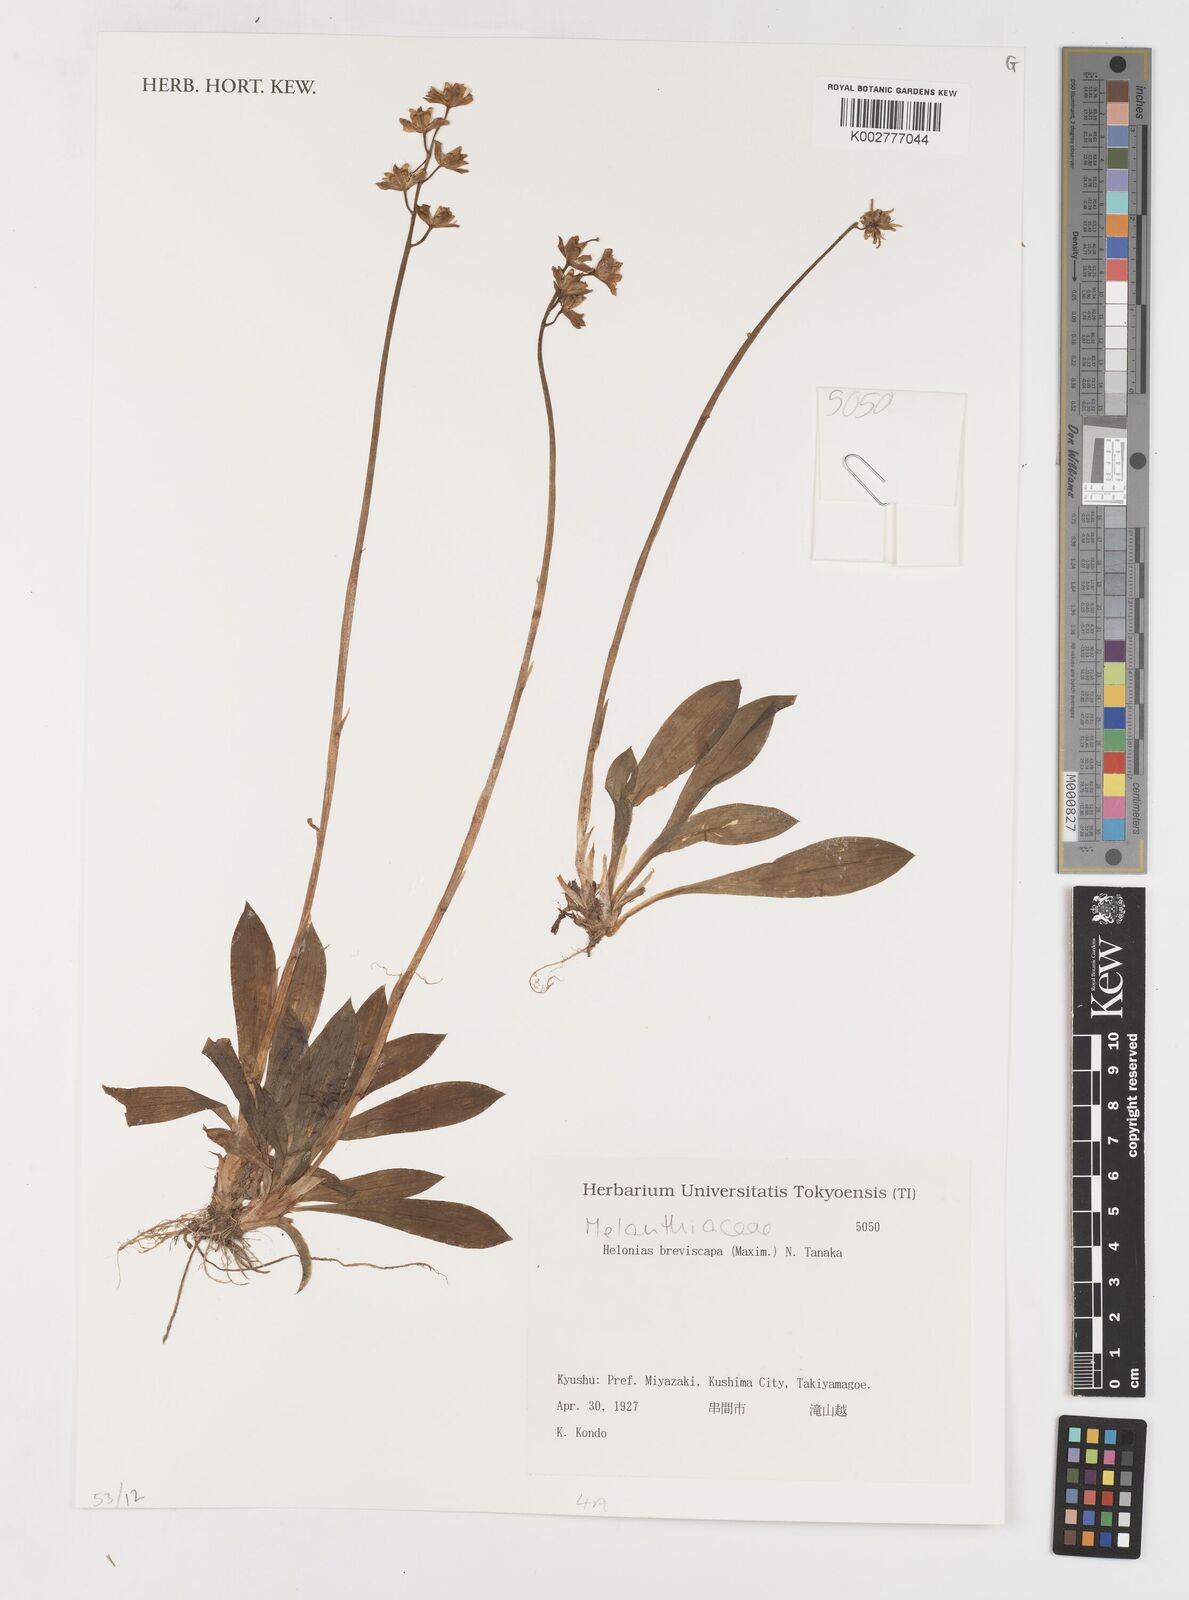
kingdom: Plantae
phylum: Tracheophyta
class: Liliopsida
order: Liliales
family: Melanthiaceae
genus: Helonias
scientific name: Helonias breviscapa
